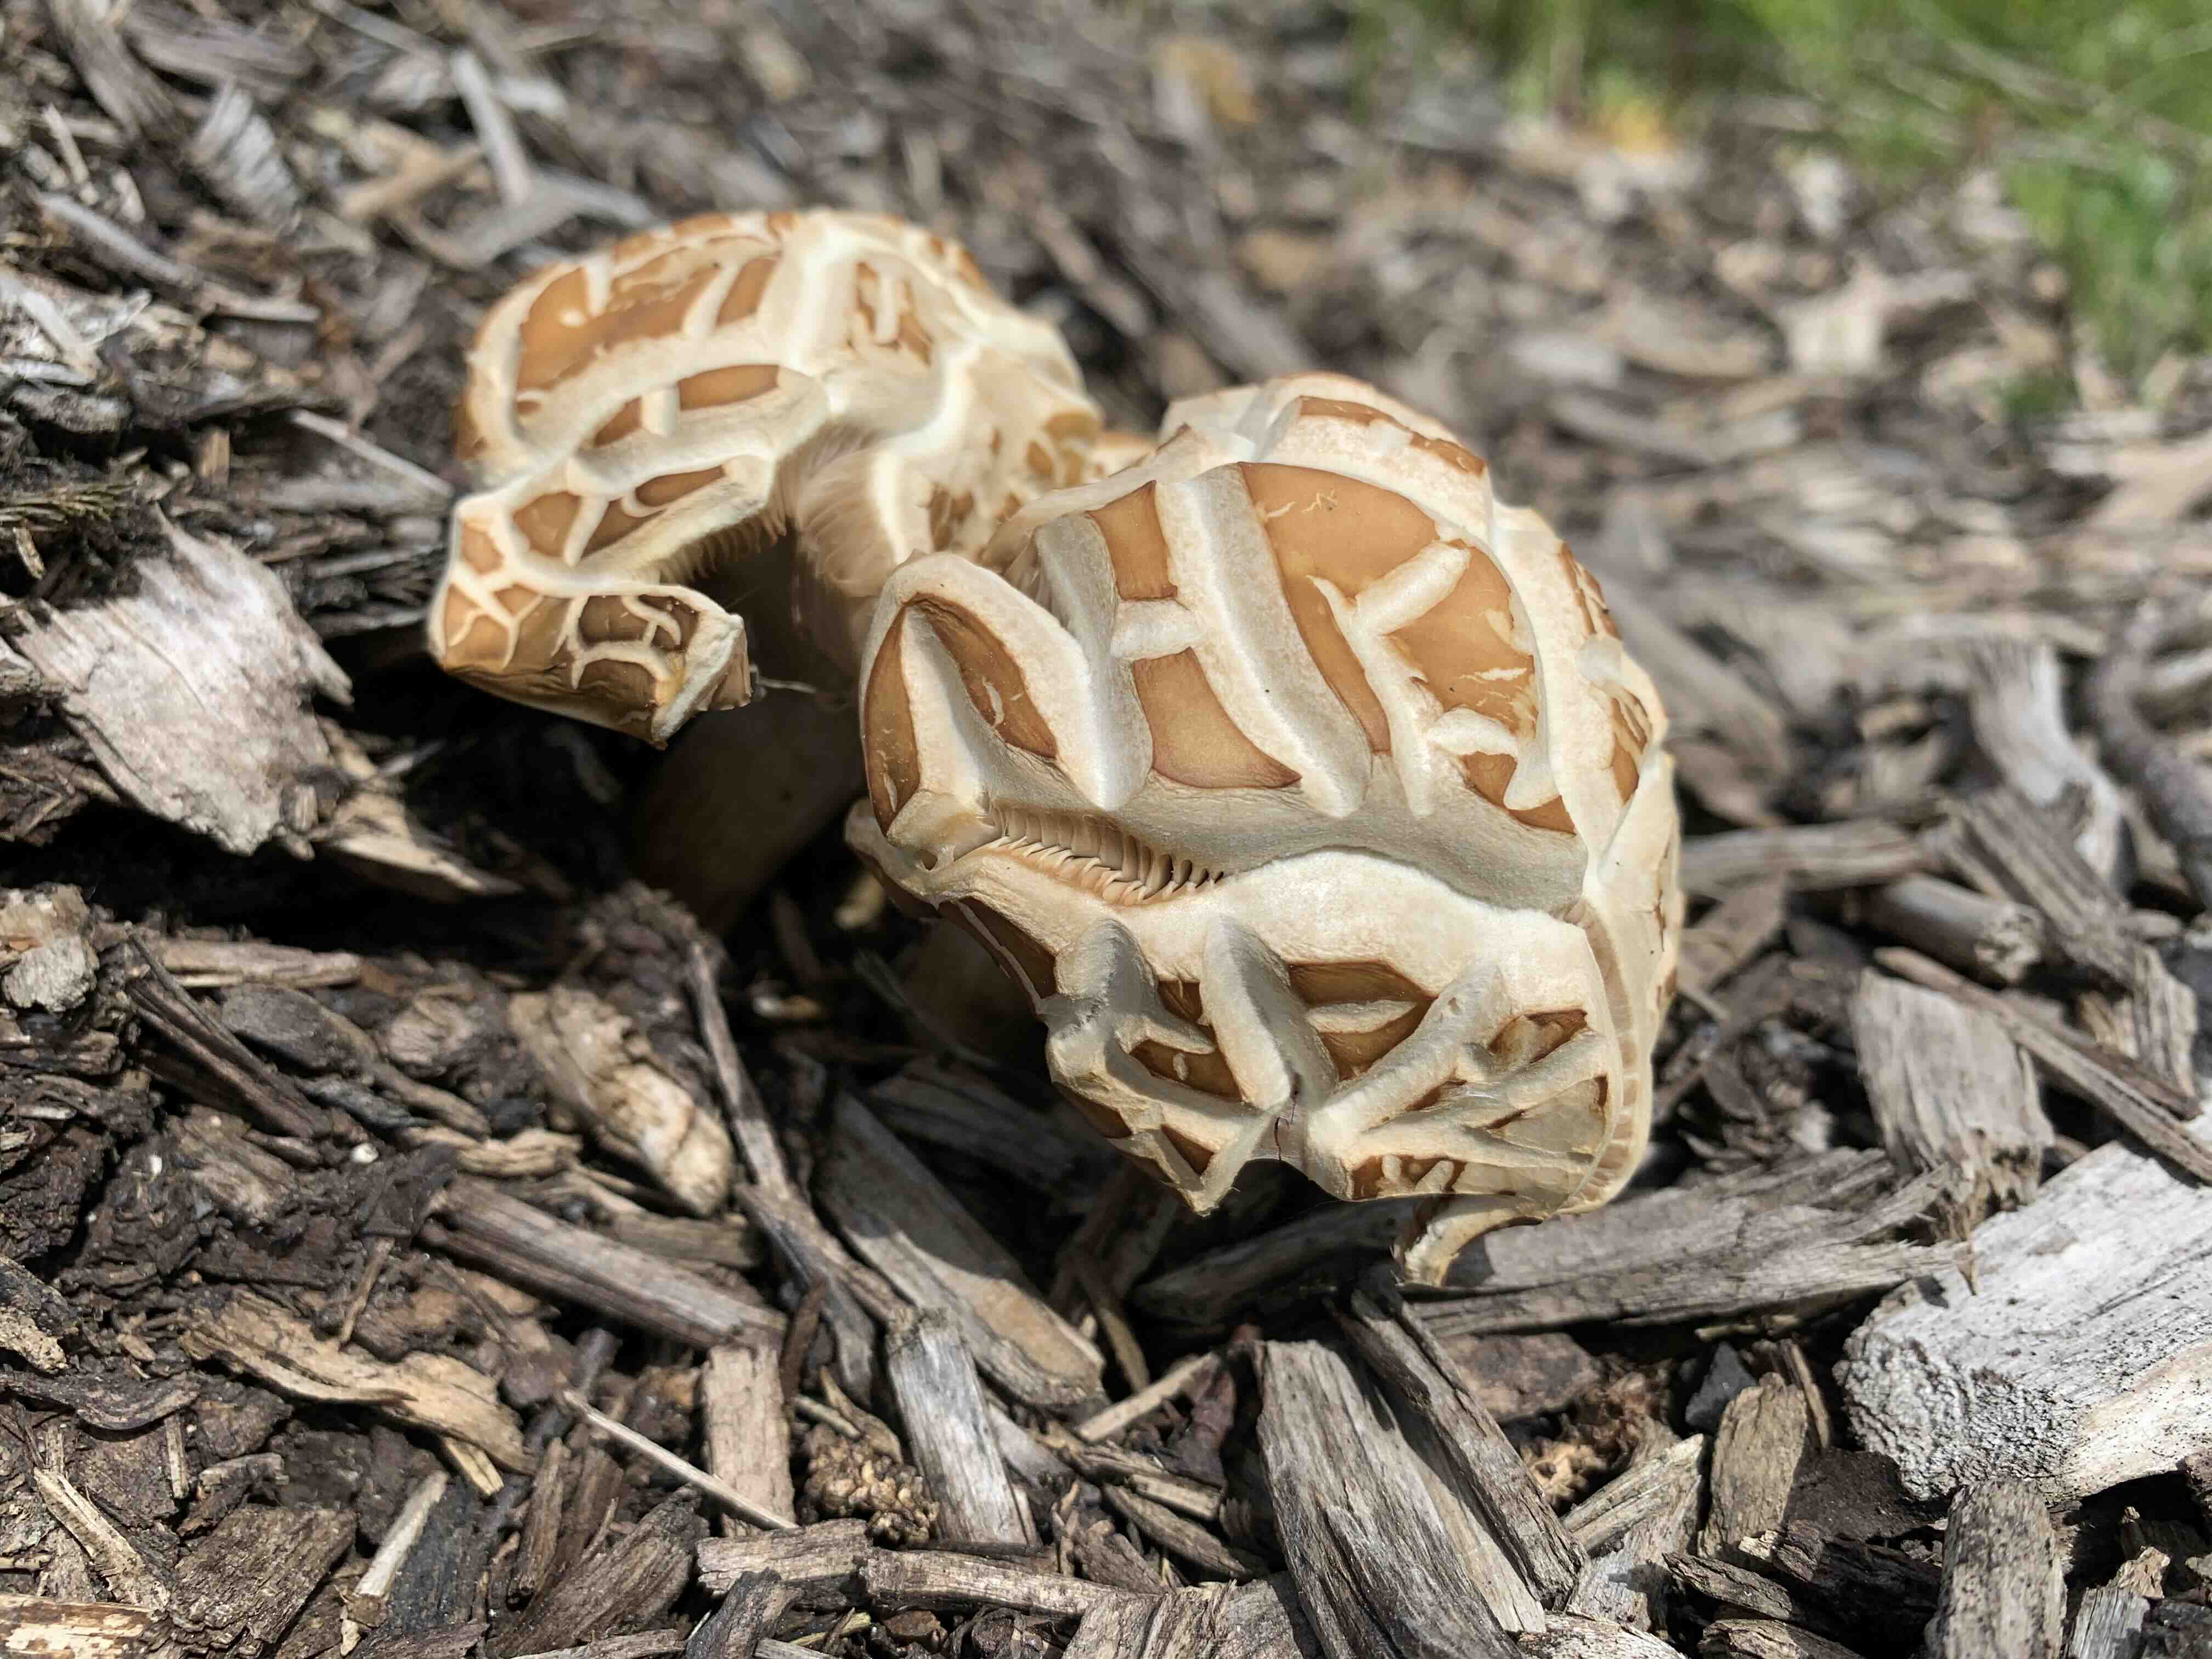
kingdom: Fungi
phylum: Basidiomycota
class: Agaricomycetes
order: Agaricales
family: Strophariaceae
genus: Agrocybe
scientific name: Agrocybe
